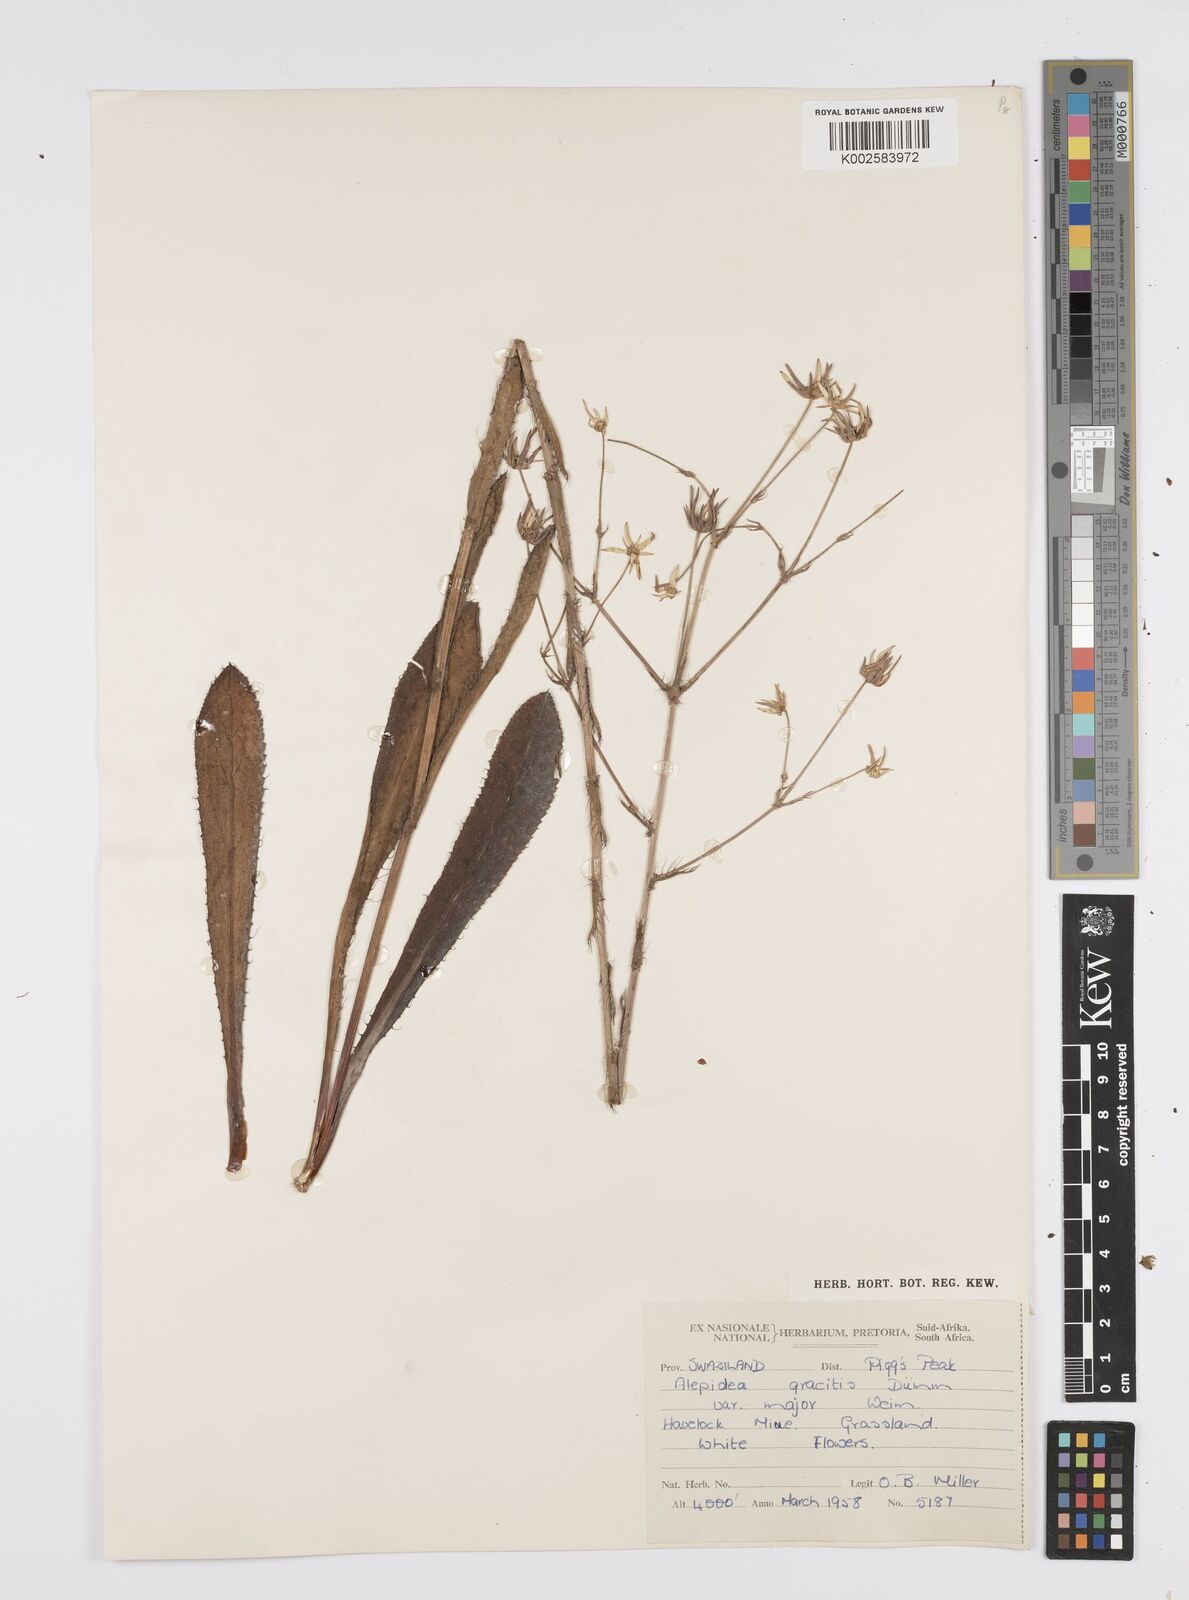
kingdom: Plantae
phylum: Tracheophyta
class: Magnoliopsida
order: Apiales
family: Apiaceae
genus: Alepidea
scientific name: Alepidea
